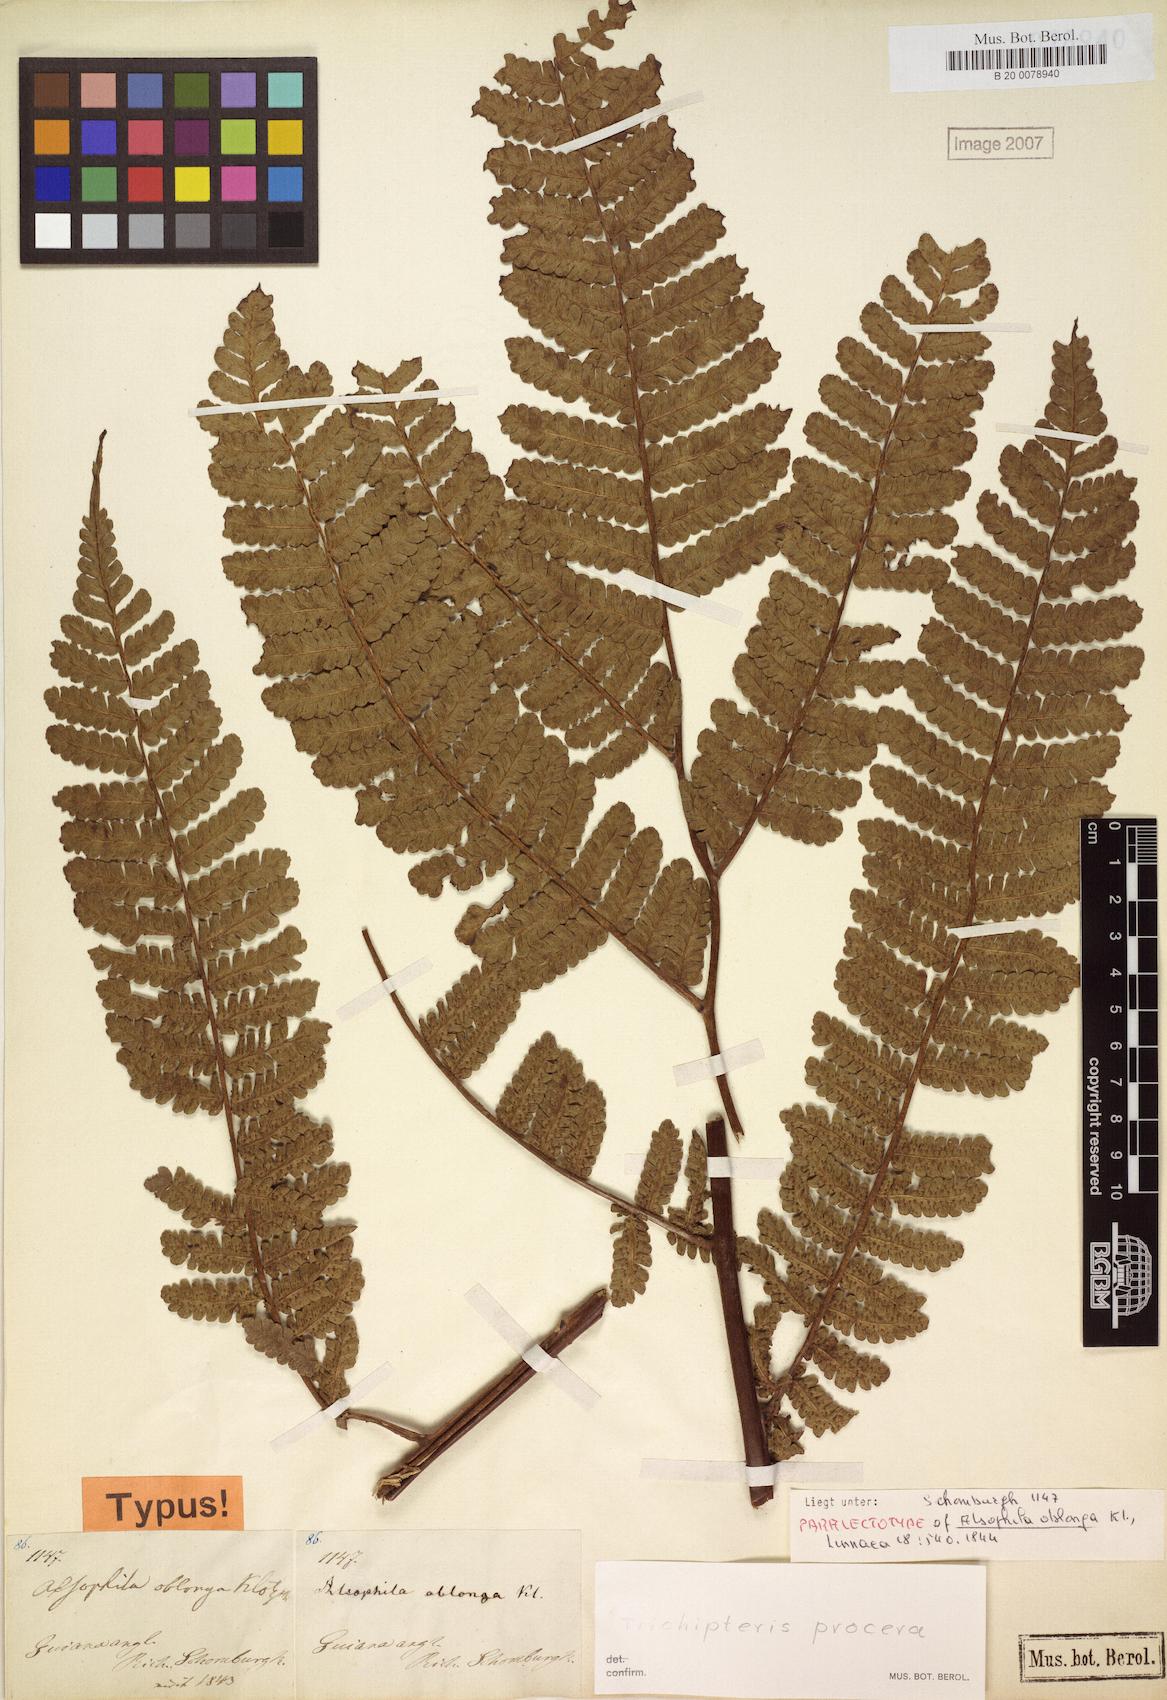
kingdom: Plantae
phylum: Tracheophyta
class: Polypodiopsida
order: Cyatheales
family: Cyatheaceae
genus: Cyathea
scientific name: Cyathea pungens
